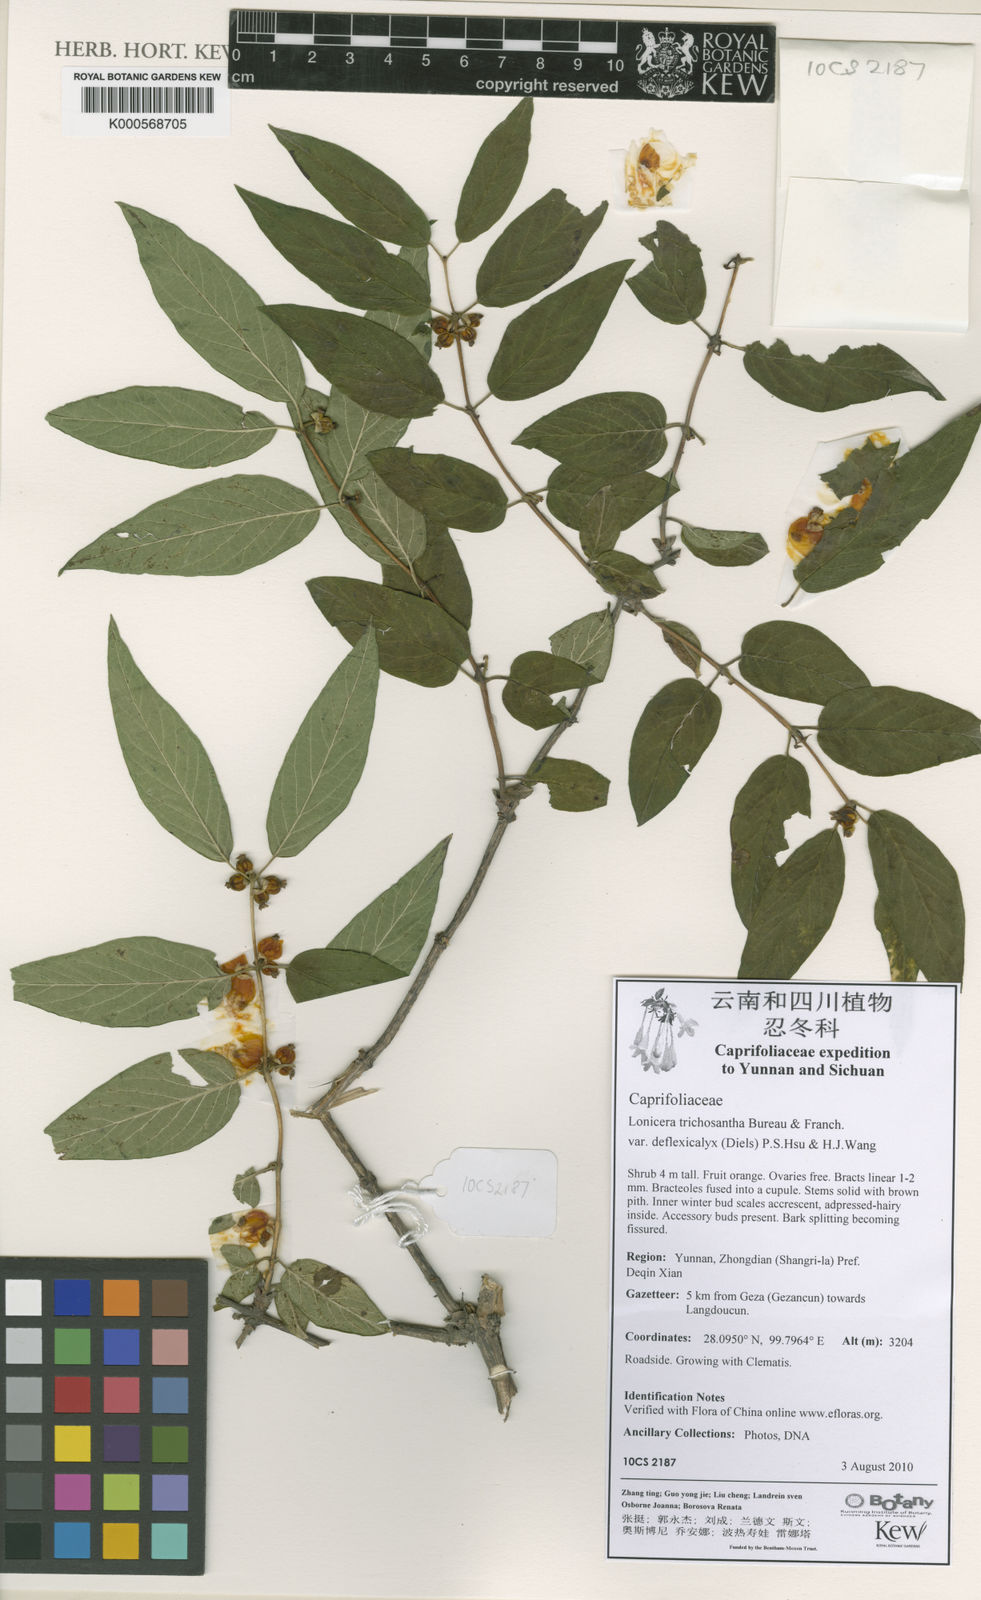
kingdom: Plantae
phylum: Tracheophyta
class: Magnoliopsida
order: Dipsacales
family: Caprifoliaceae
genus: Lonicera
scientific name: Lonicera trichosantha
